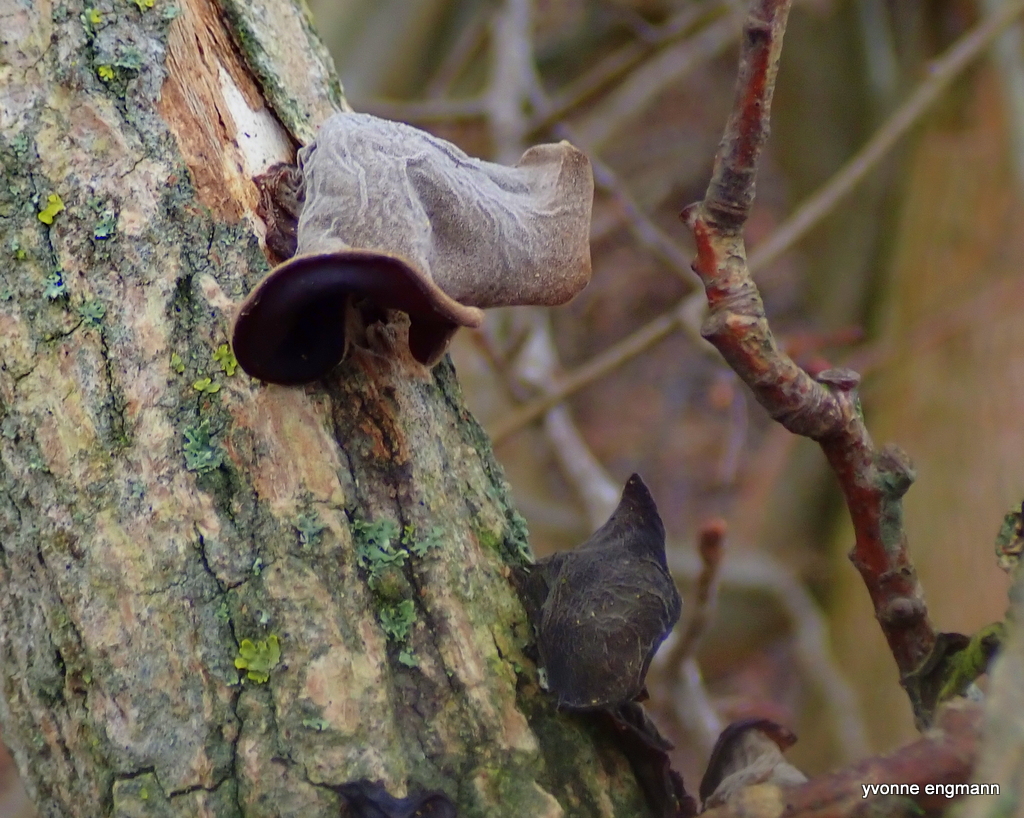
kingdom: Fungi
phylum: Basidiomycota
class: Agaricomycetes
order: Auriculariales
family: Auriculariaceae
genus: Auricularia
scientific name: Auricularia auricula-judae
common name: almindelig judasøre
